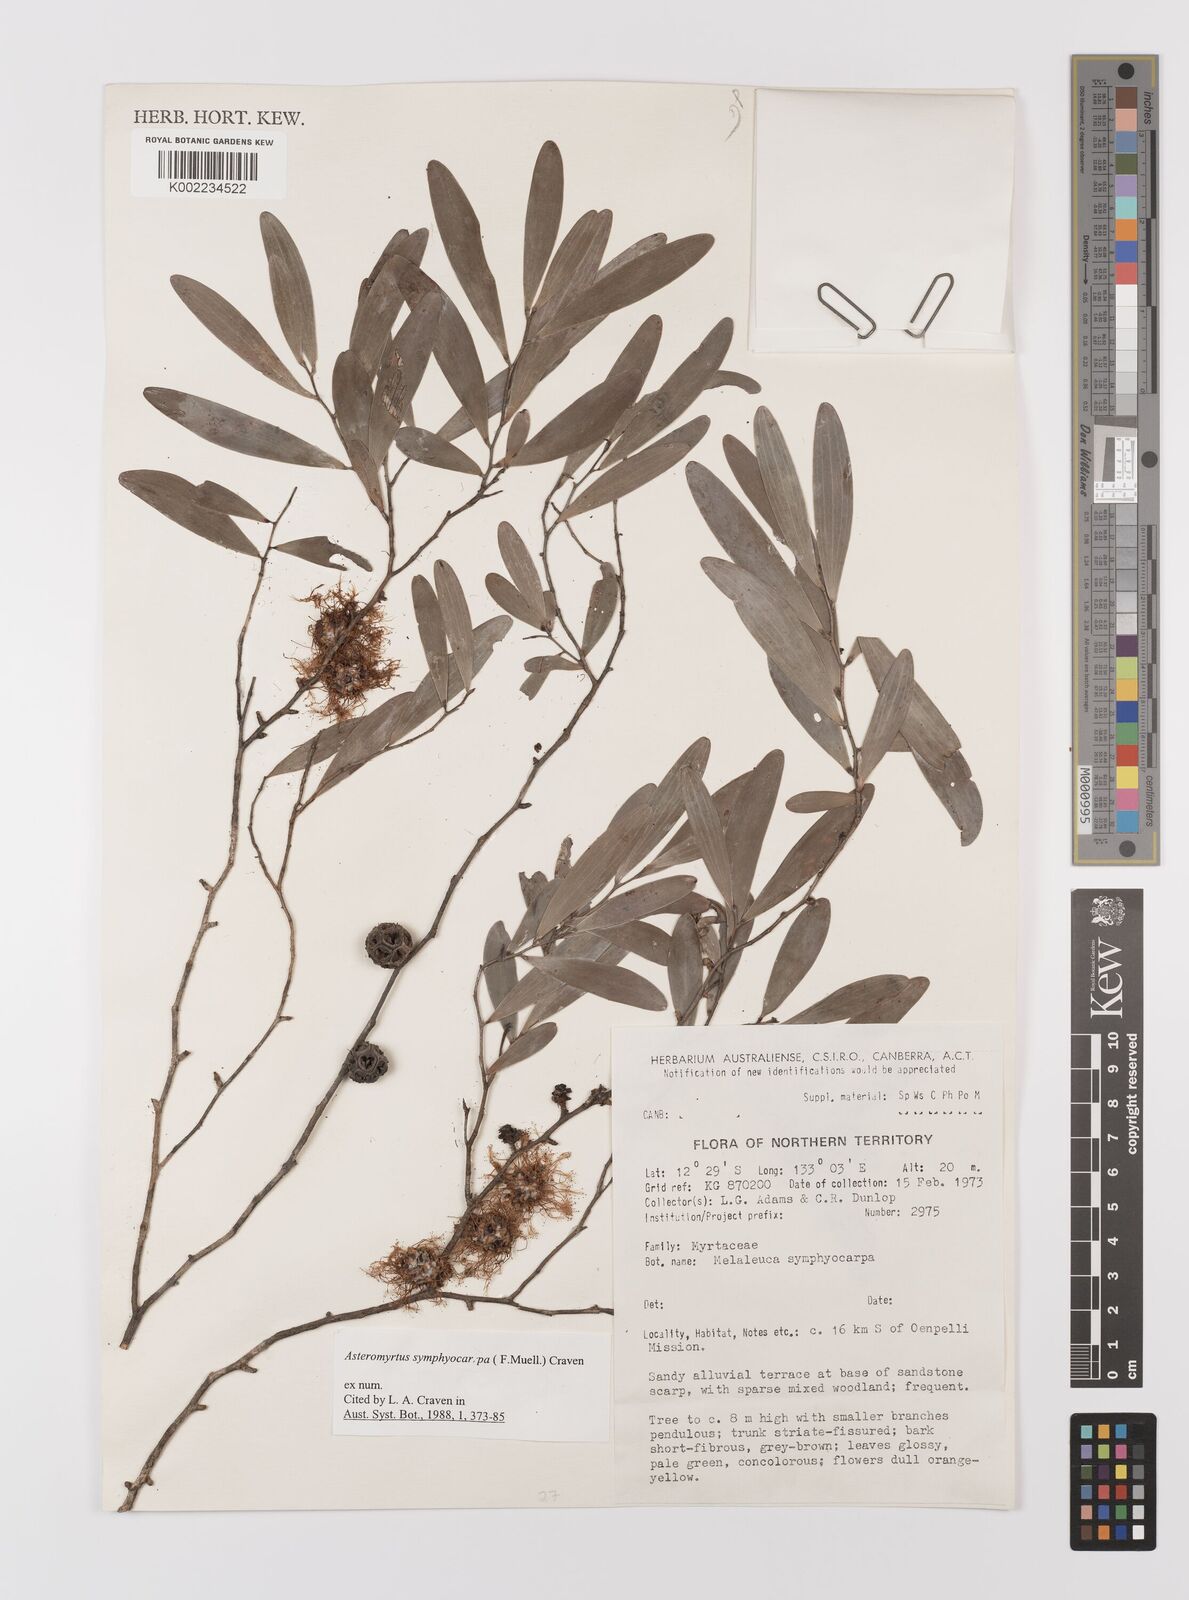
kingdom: Plantae
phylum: Tracheophyta
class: Magnoliopsida
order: Myrtales
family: Myrtaceae
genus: Asteromyrtus
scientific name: Asteromyrtus symphyocarpa
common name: Liniment-tree
